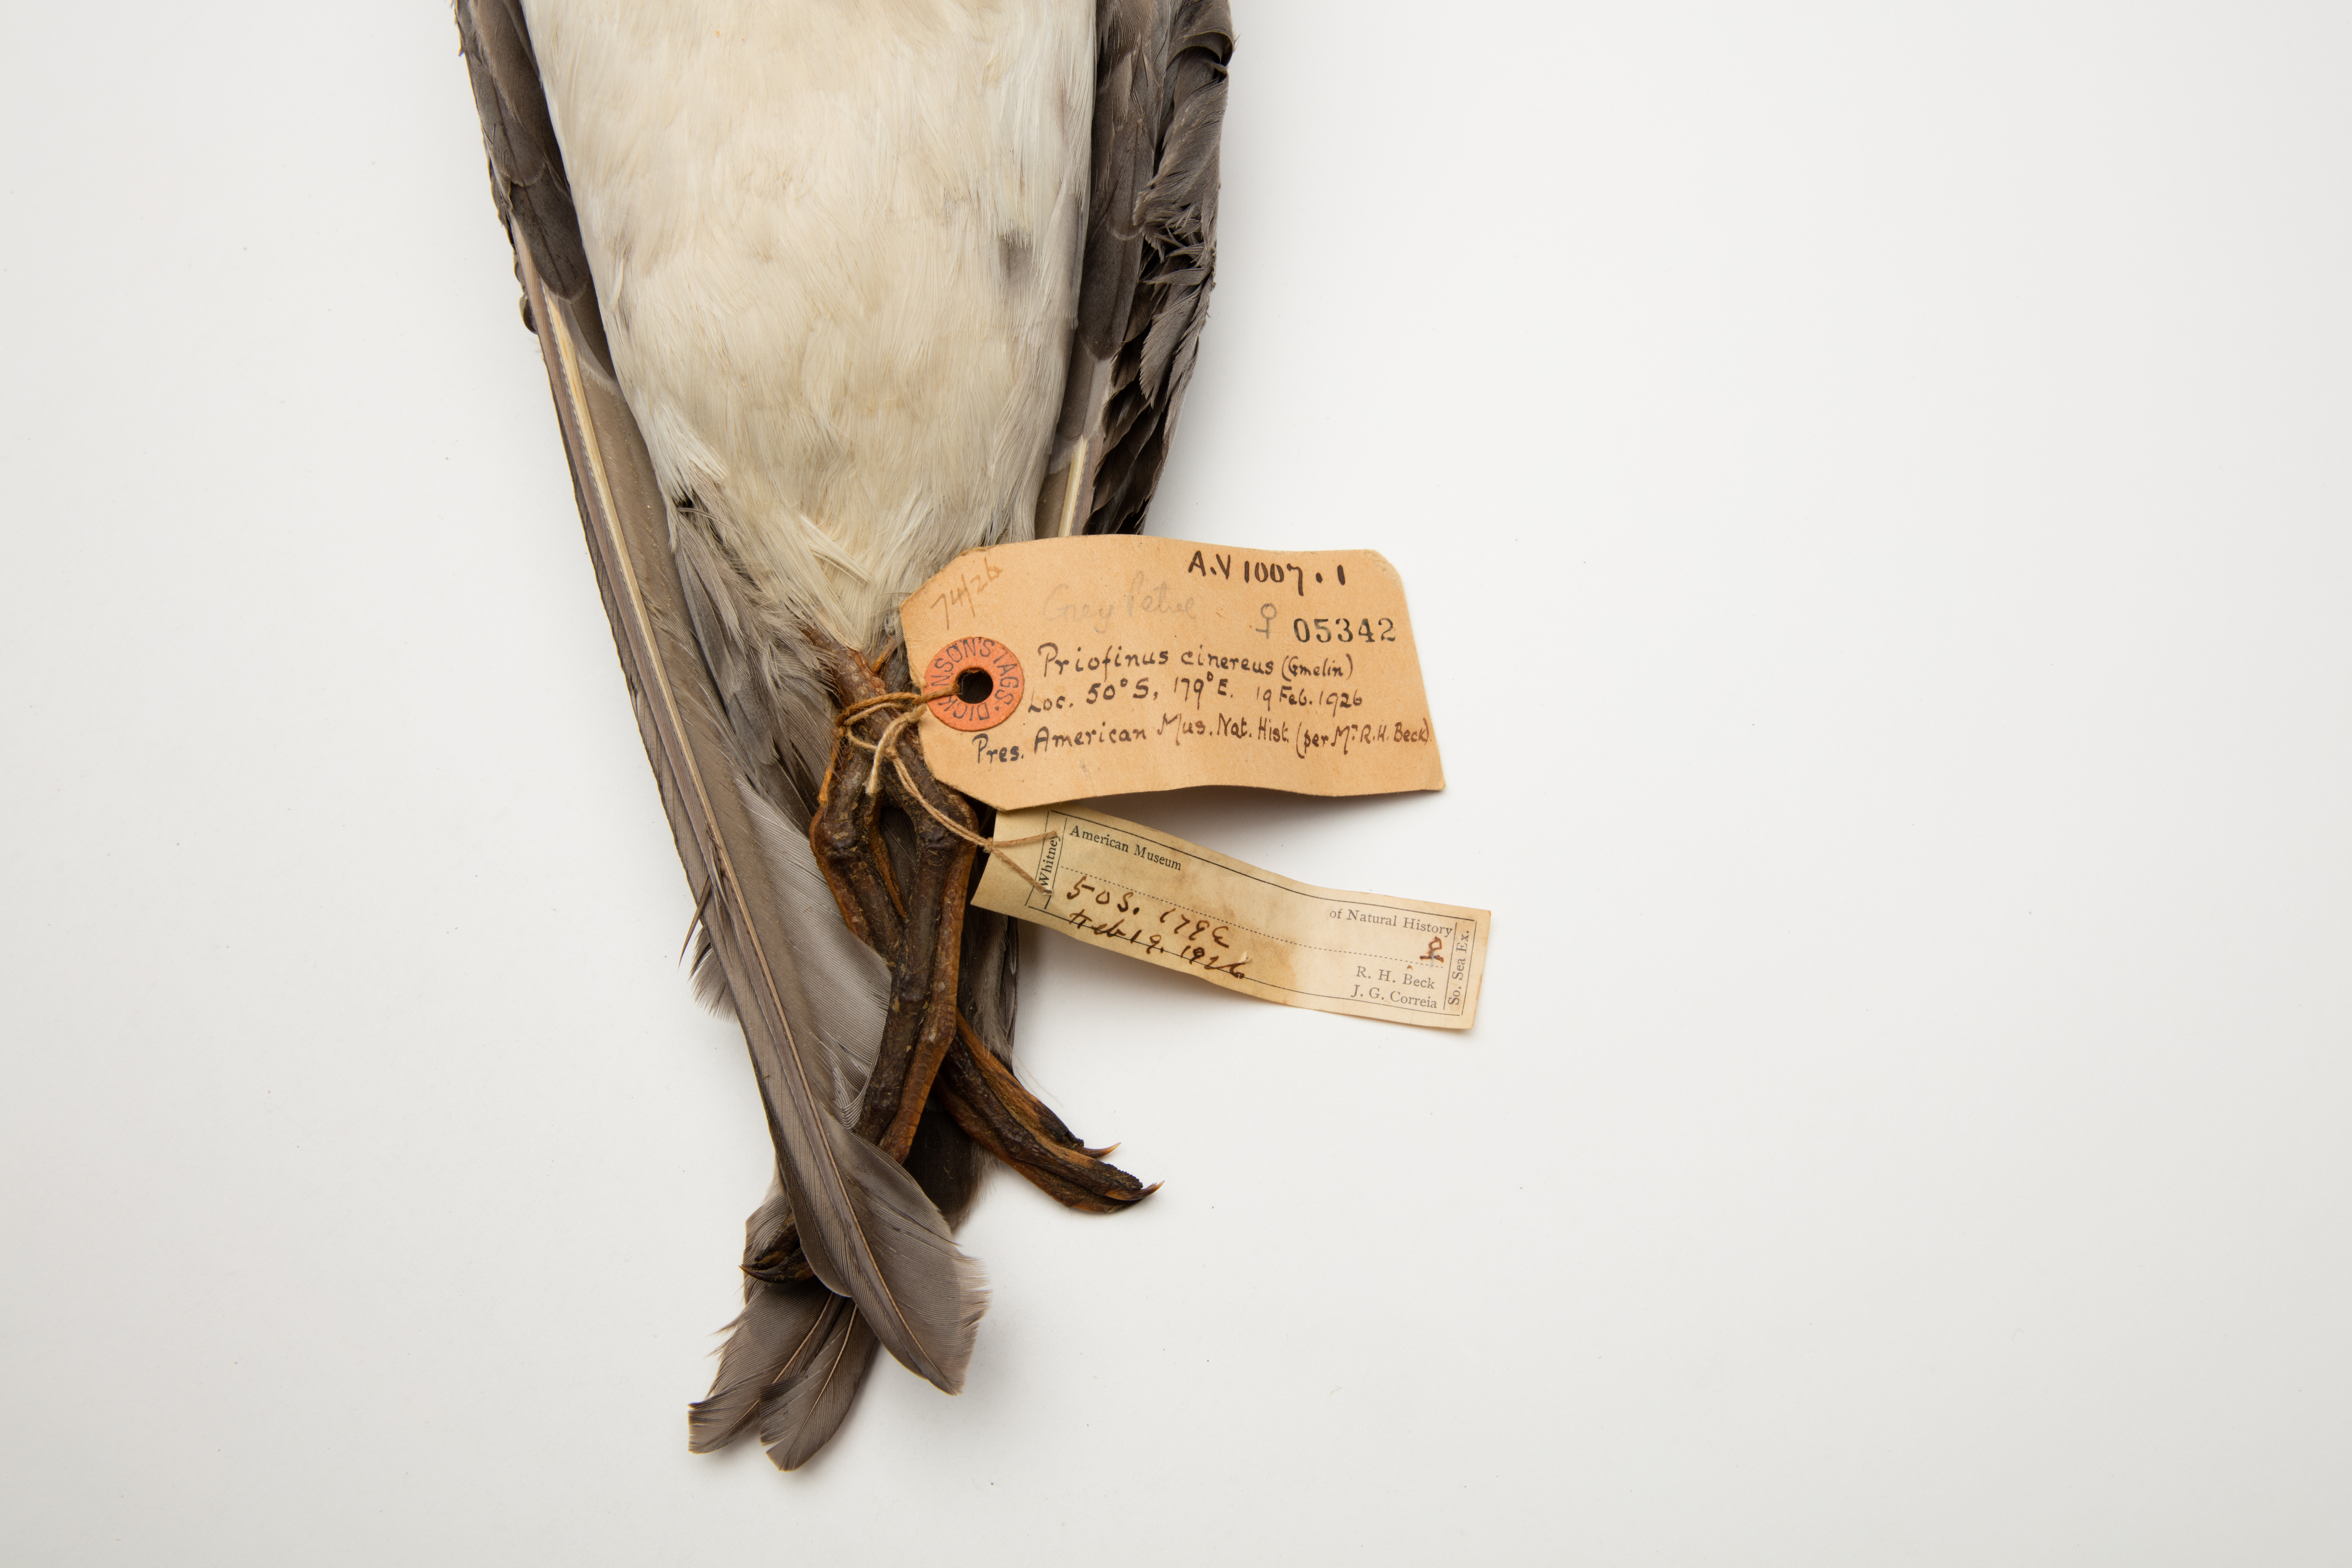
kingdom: Animalia
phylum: Chordata
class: Aves
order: Procellariiformes
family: Procellariidae
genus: Procellaria
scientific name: Procellaria cinerea
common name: Grey petrel
